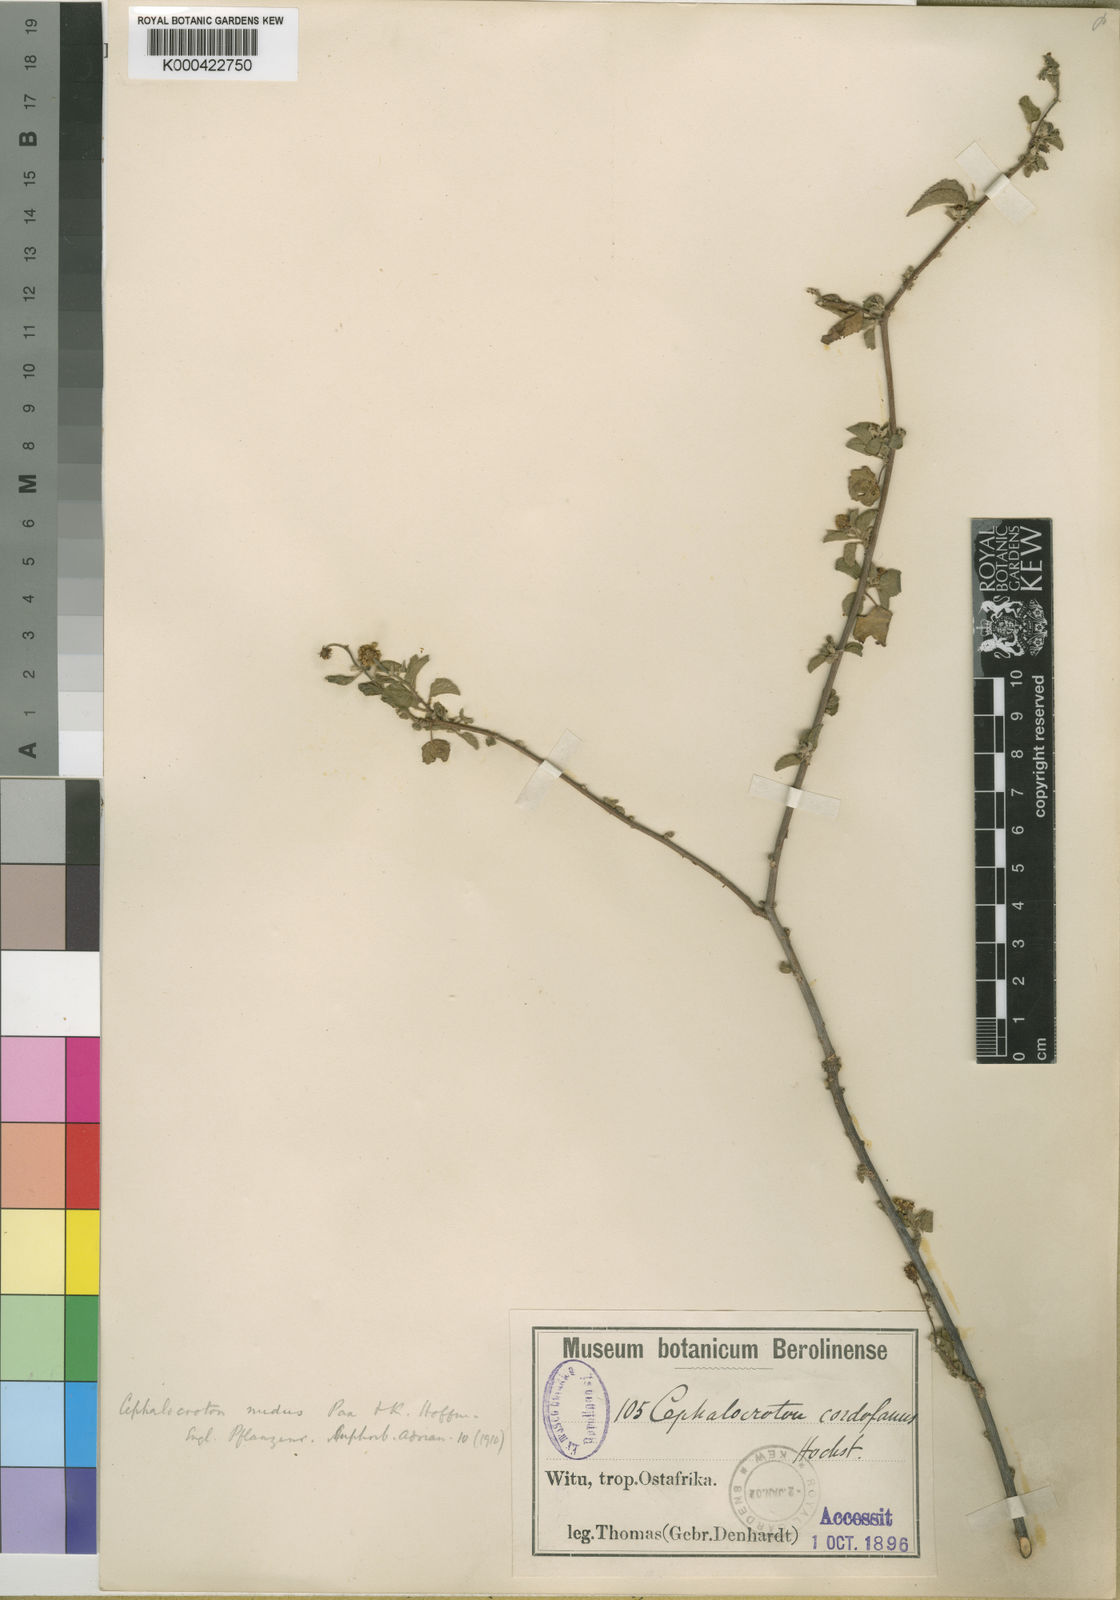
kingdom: Plantae
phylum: Tracheophyta
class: Magnoliopsida
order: Malpighiales
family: Euphorbiaceae
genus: Cephalocroton
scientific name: Cephalocroton cordofanus
